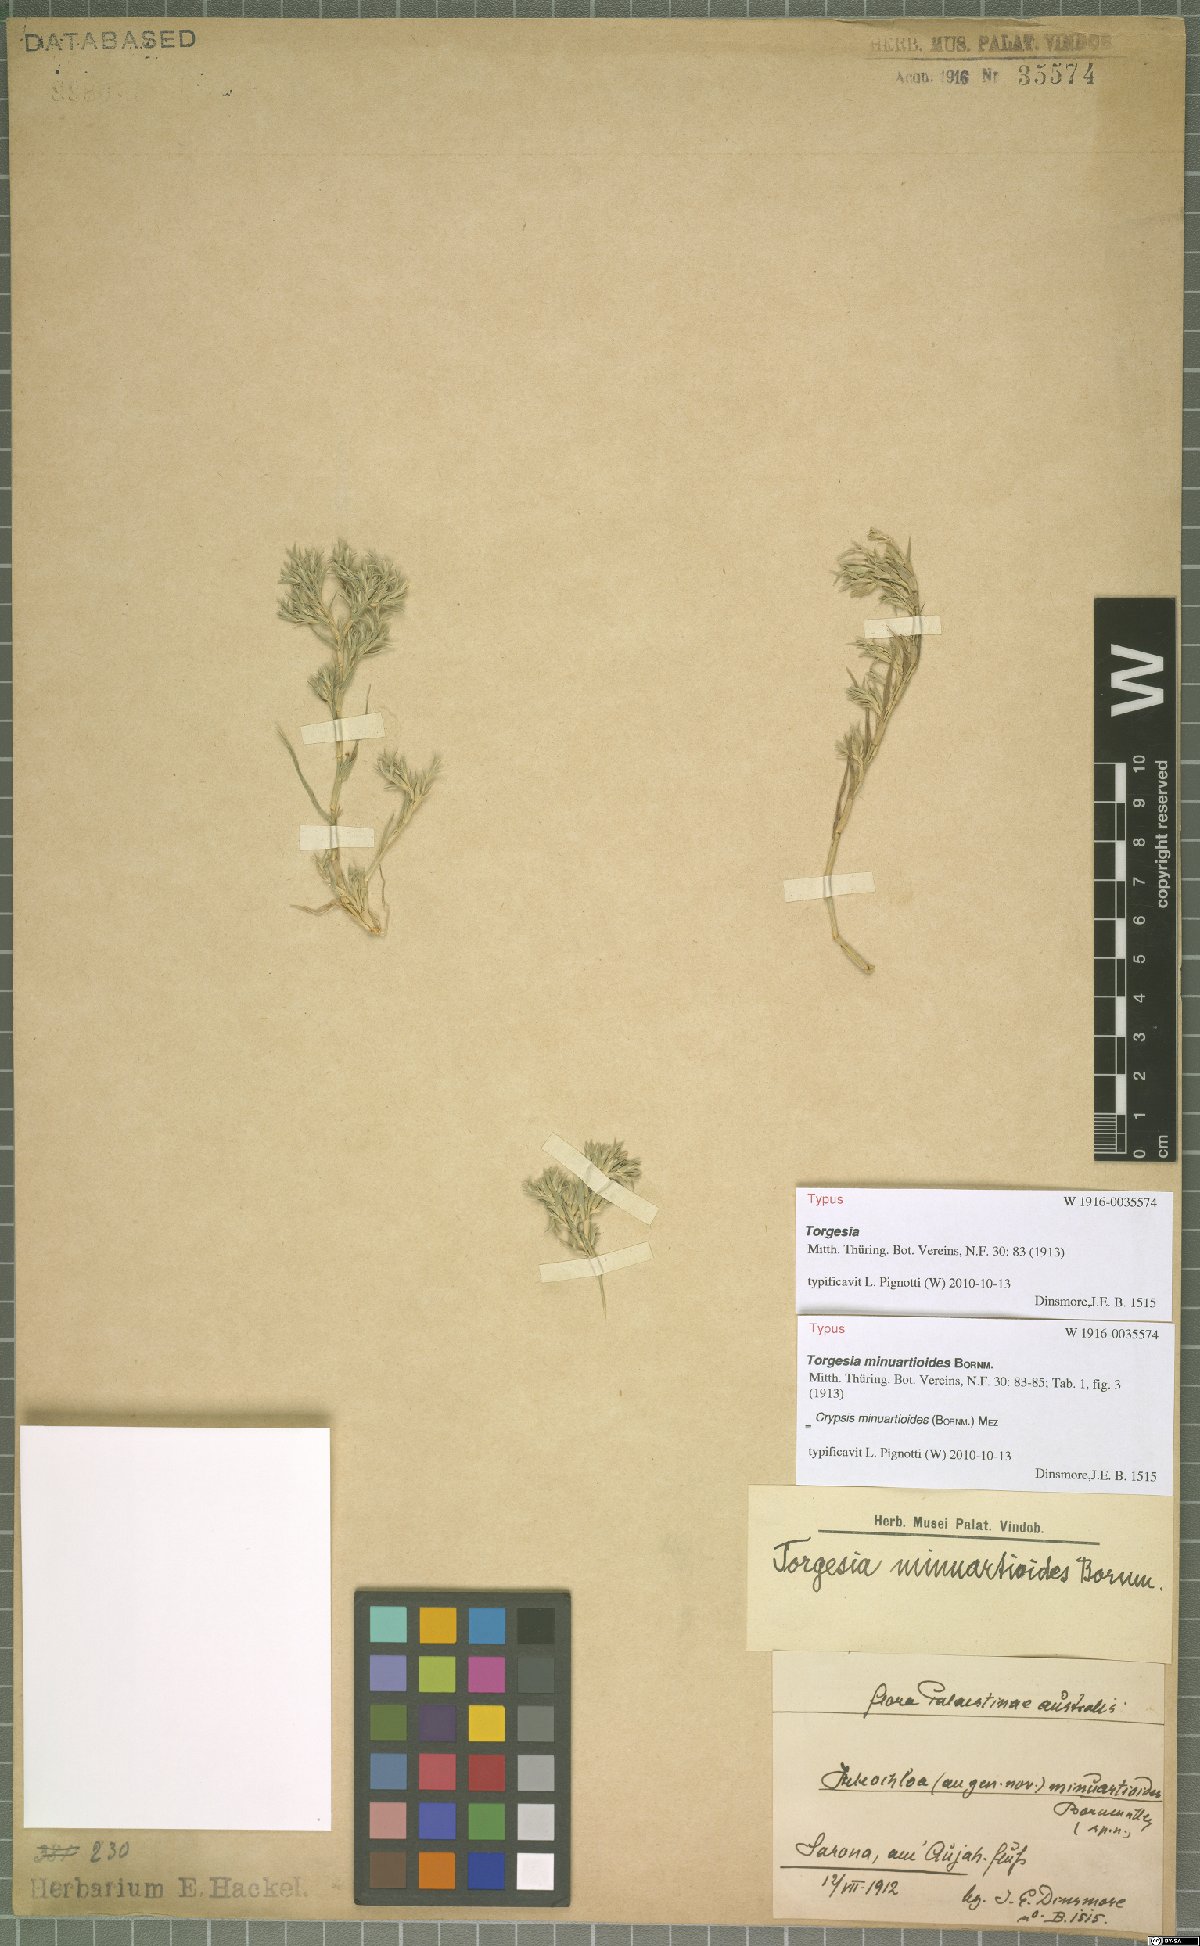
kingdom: Plantae
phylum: Tracheophyta
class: Liliopsida
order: Poales
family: Poaceae
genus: Sporobolus
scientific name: Sporobolus minuartioides
